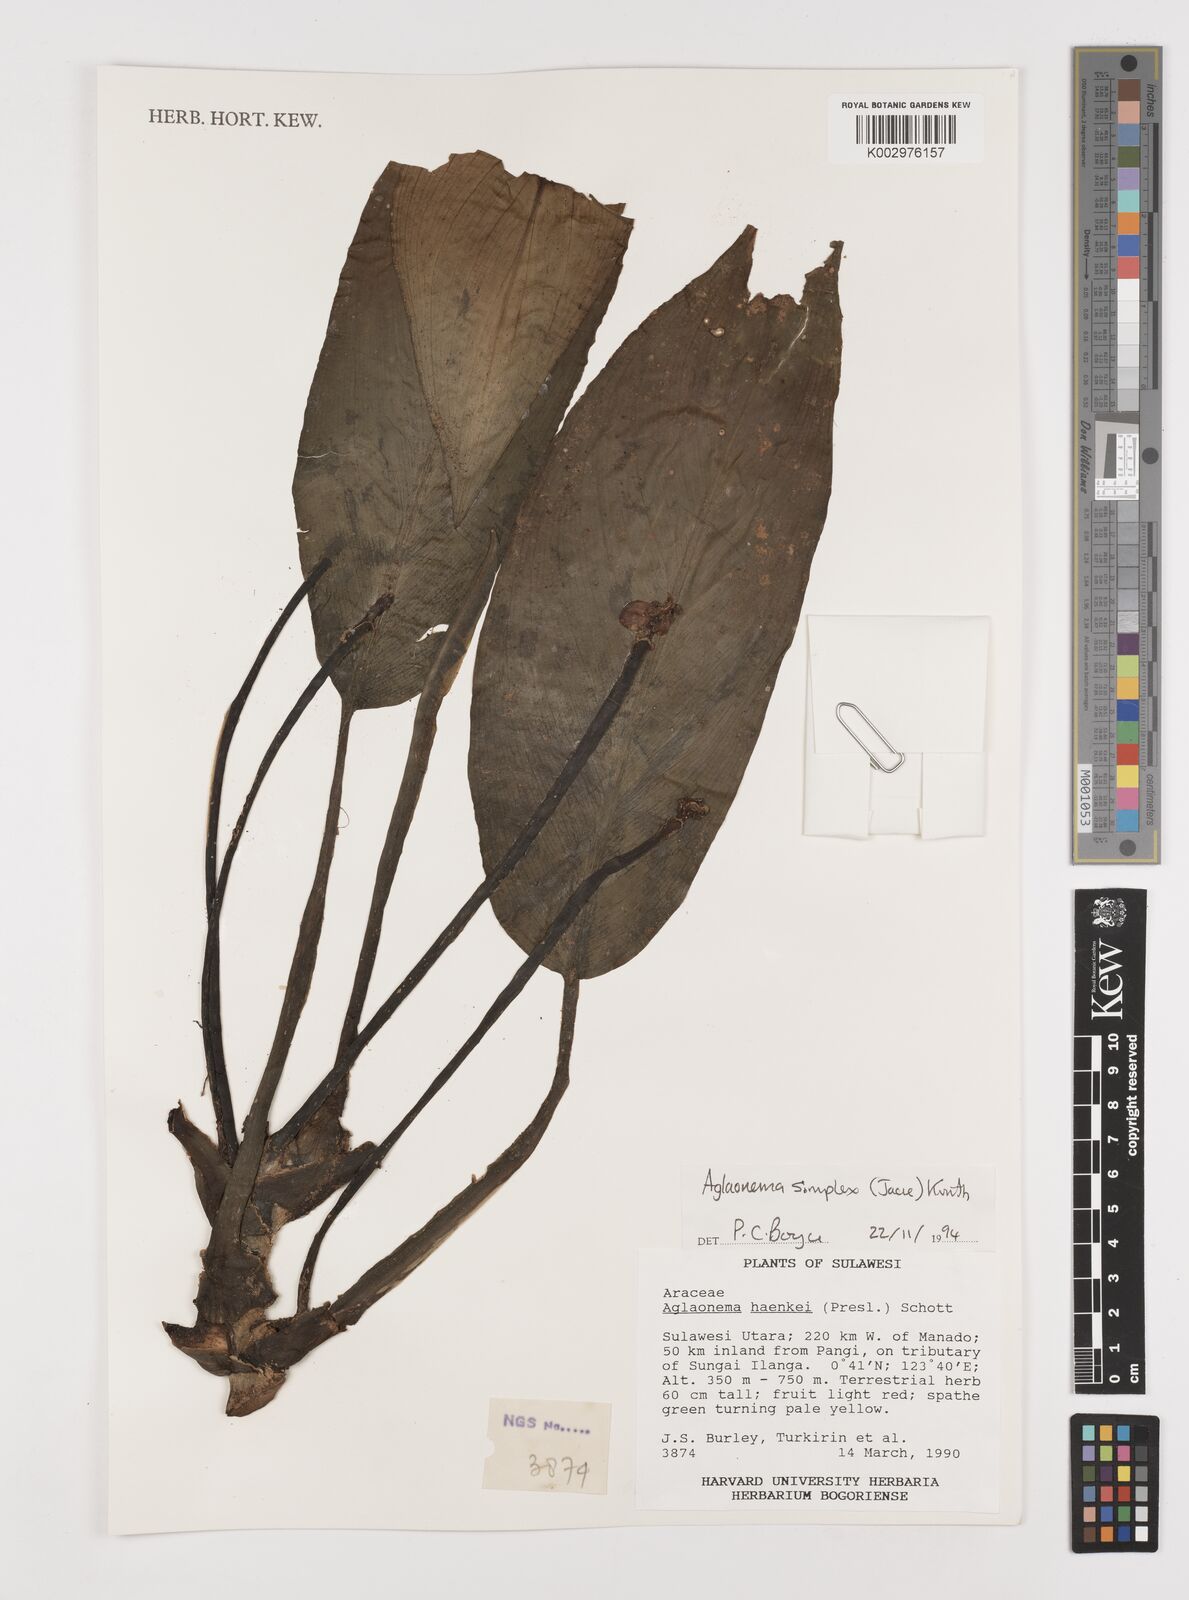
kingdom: Plantae
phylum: Tracheophyta
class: Liliopsida
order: Alismatales
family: Araceae
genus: Aglaonema
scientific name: Aglaonema simplex
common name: Malayan-sword
